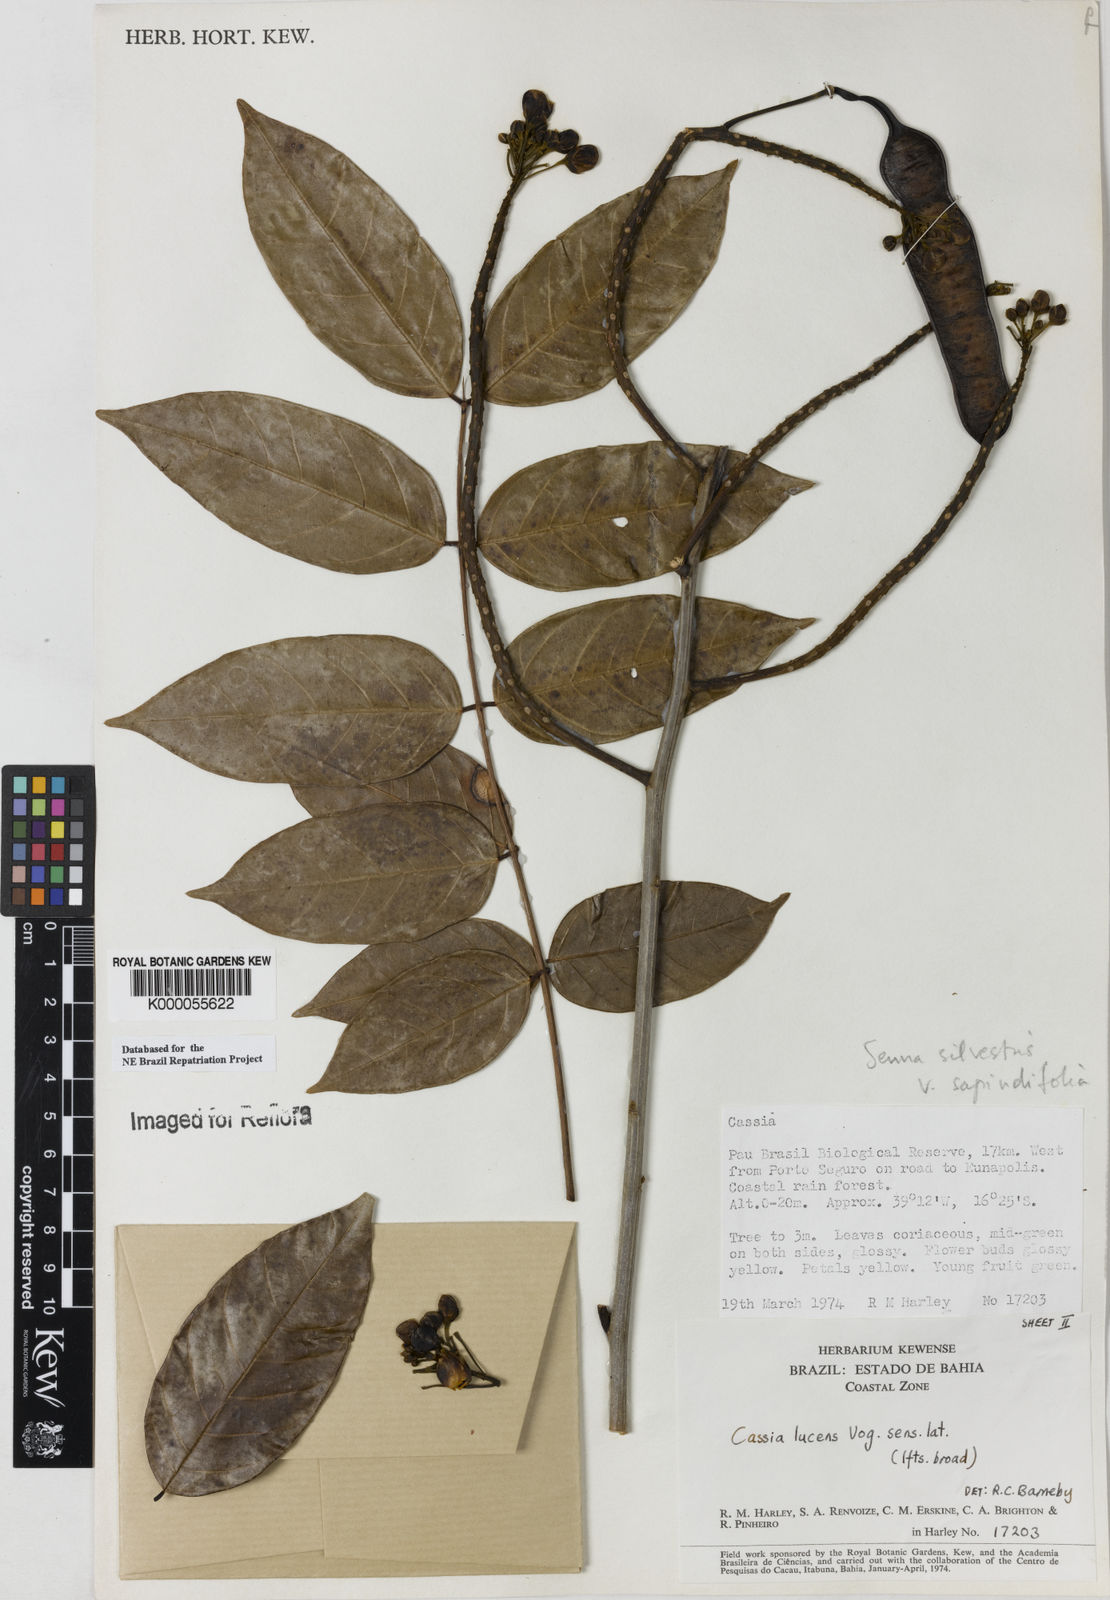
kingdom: Plantae
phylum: Tracheophyta
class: Magnoliopsida
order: Fabales
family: Fabaceae
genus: Senna
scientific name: Senna silvestris
